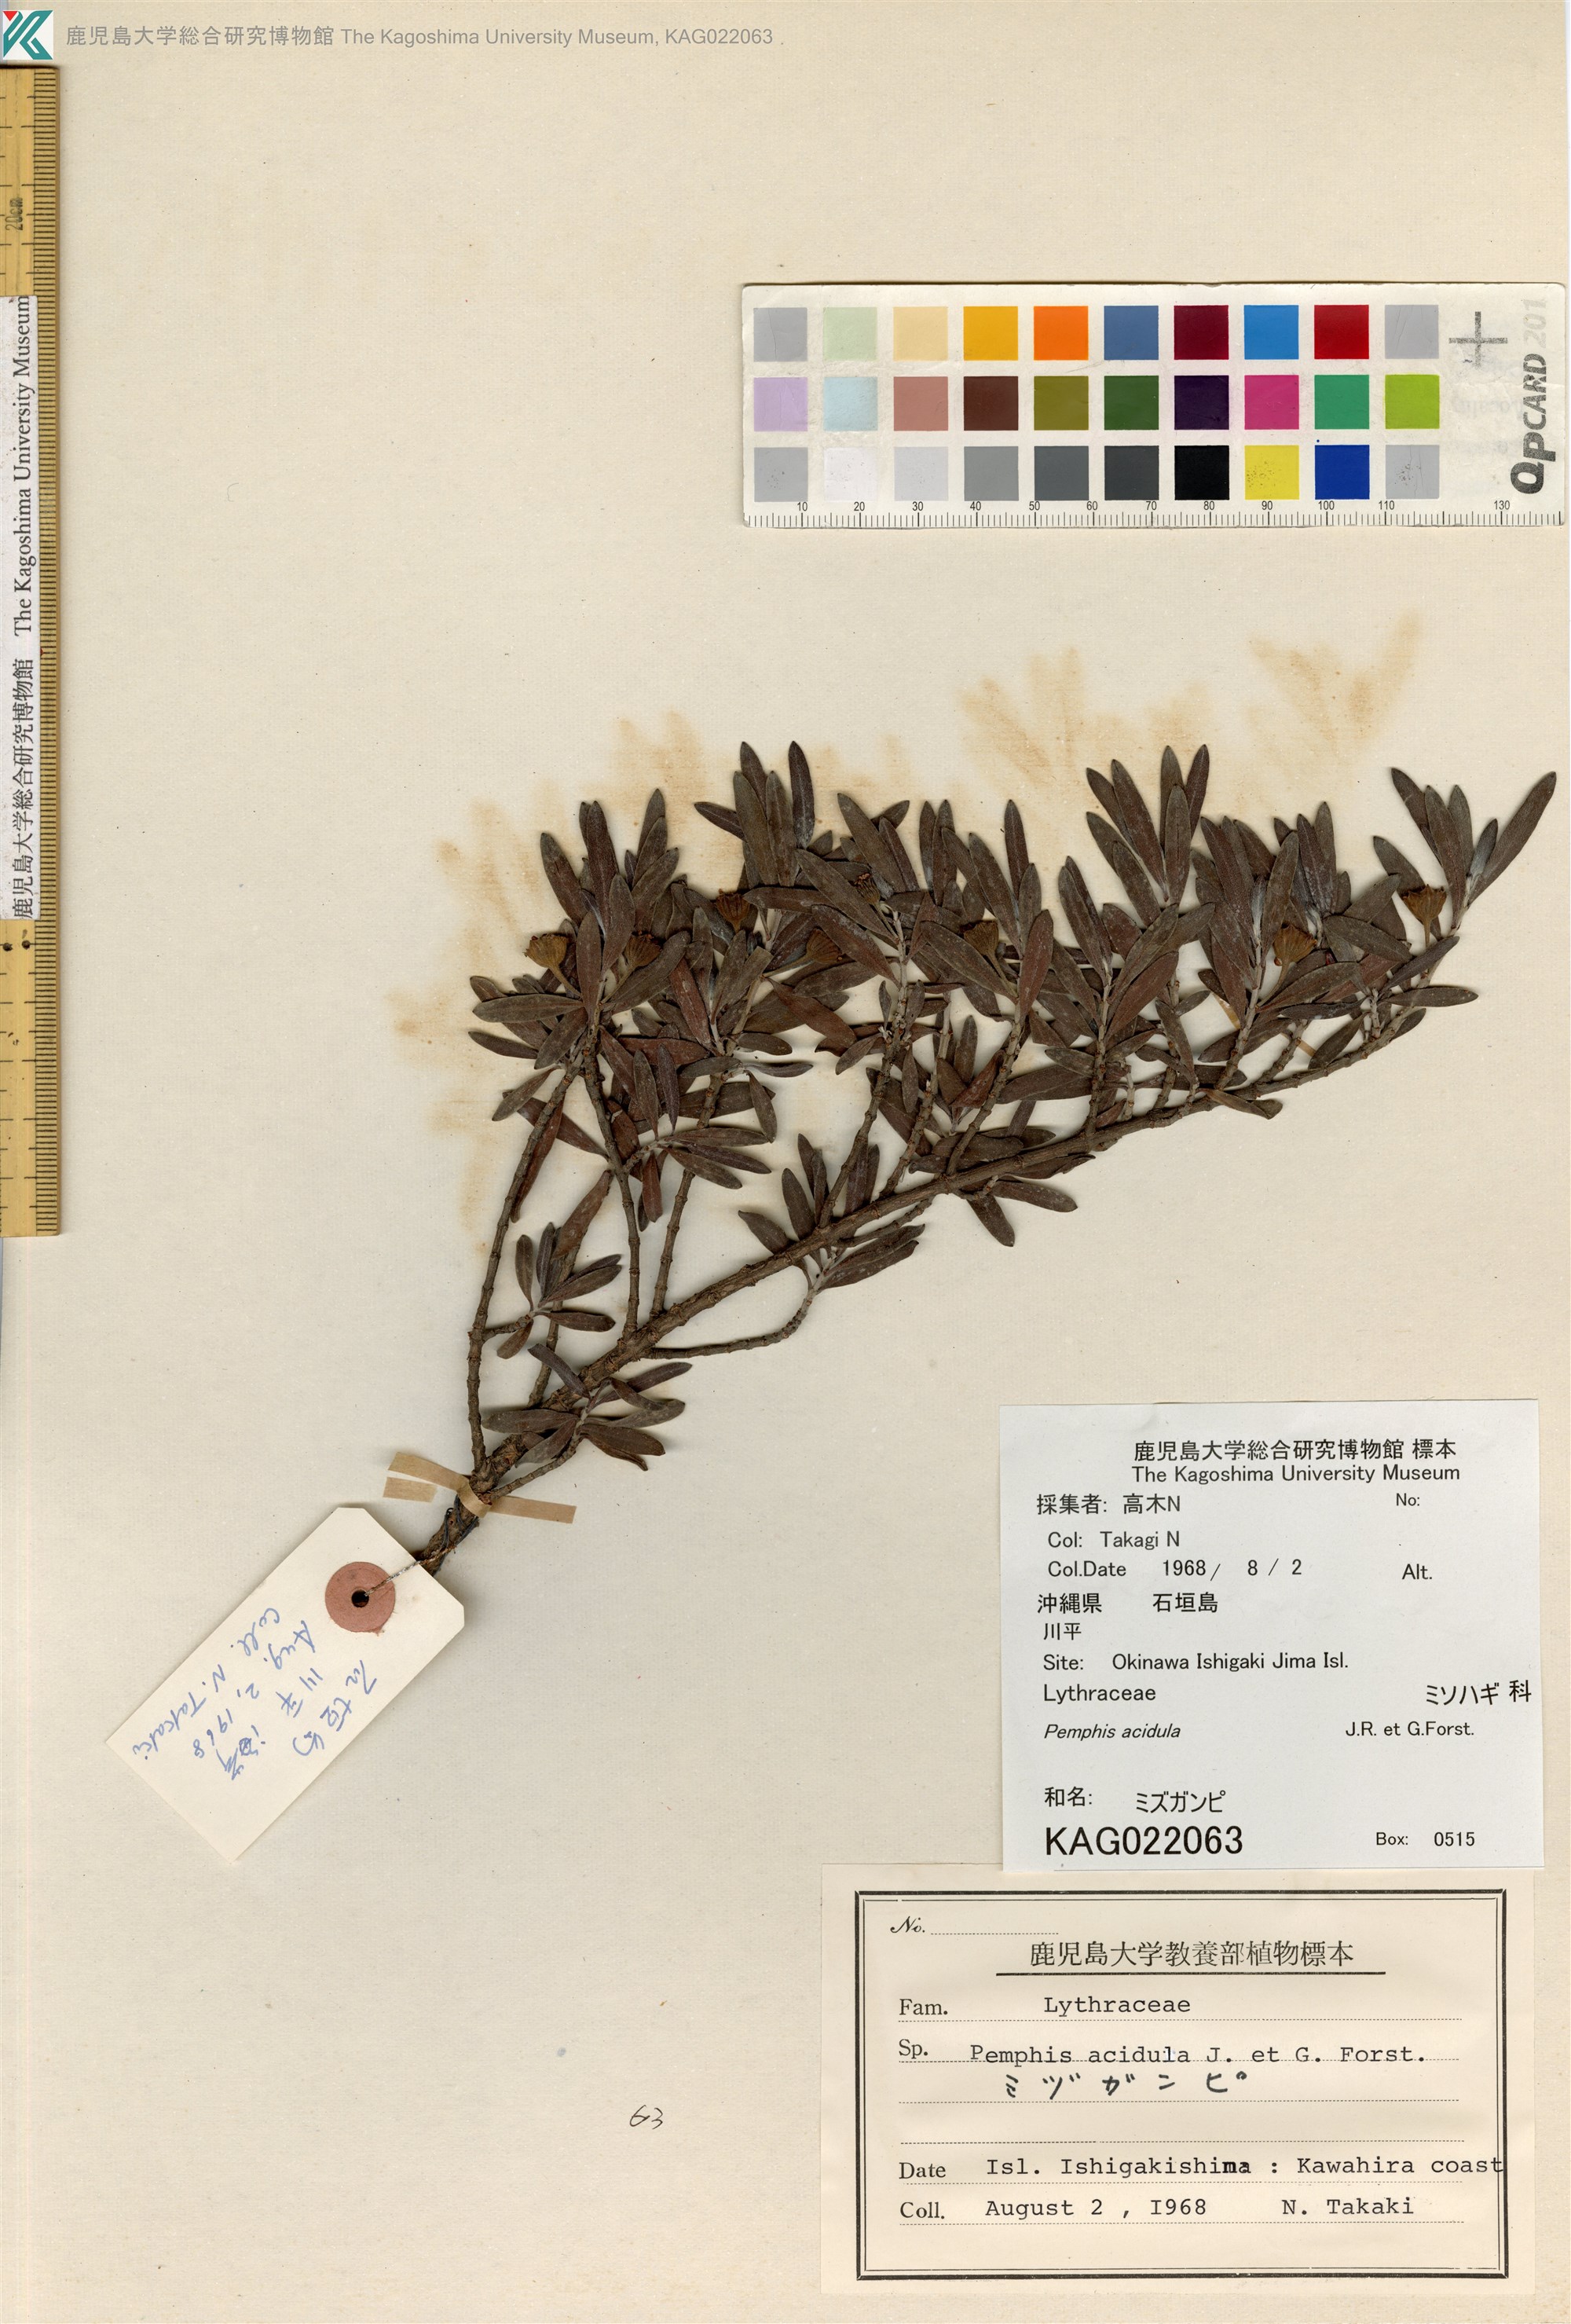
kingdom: Plantae
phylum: Tracheophyta
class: Magnoliopsida
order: Myrtales
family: Lythraceae
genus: Pemphis
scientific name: Pemphis acidula
